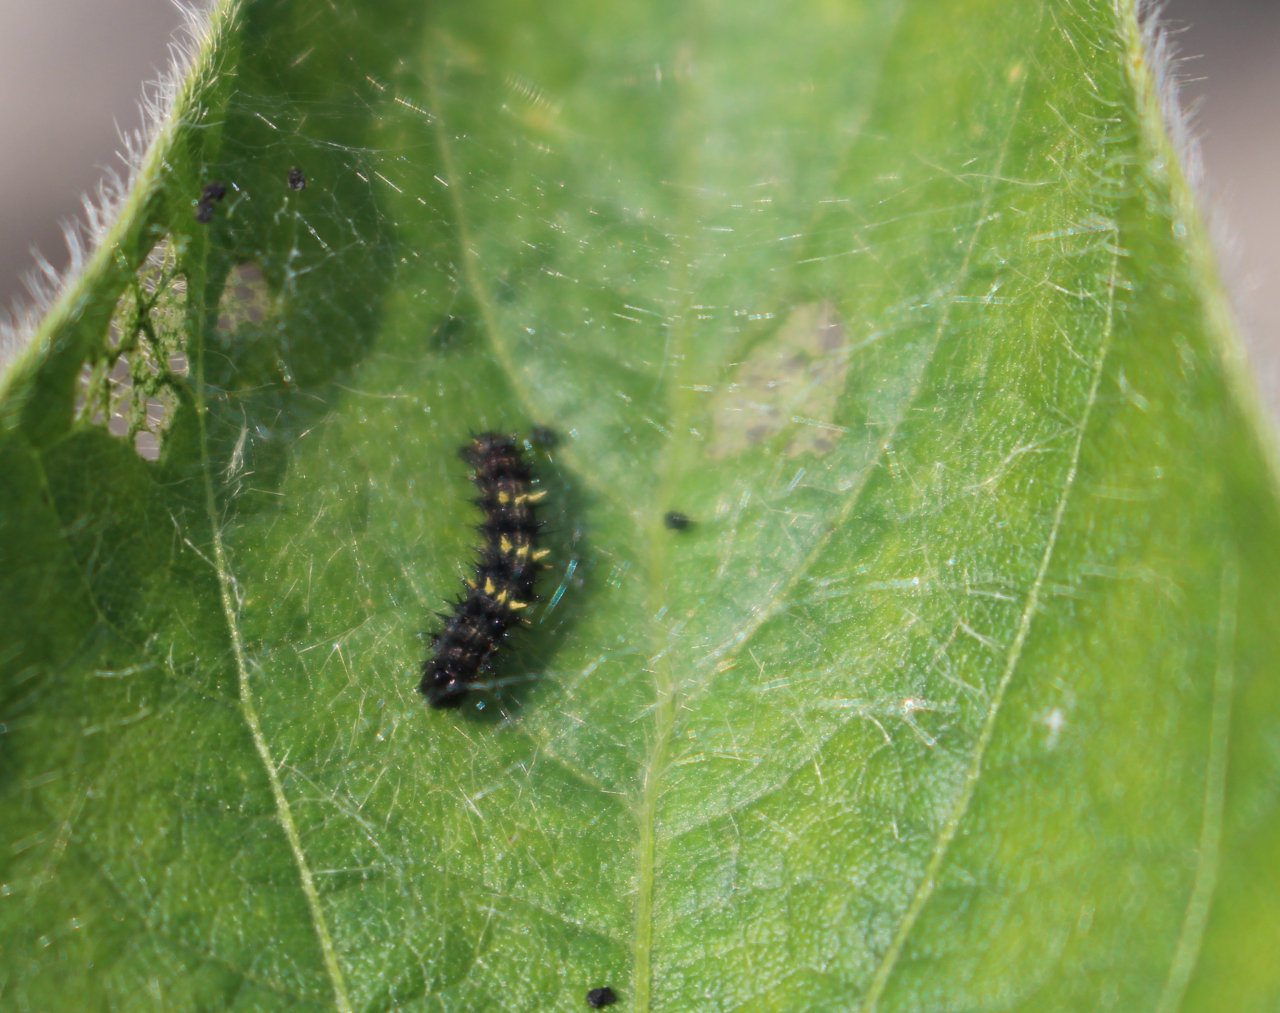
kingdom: Animalia
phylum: Arthropoda
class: Insecta
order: Lepidoptera
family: Nymphalidae
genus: Vanessa
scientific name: Vanessa cardui
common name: Painted Lady
